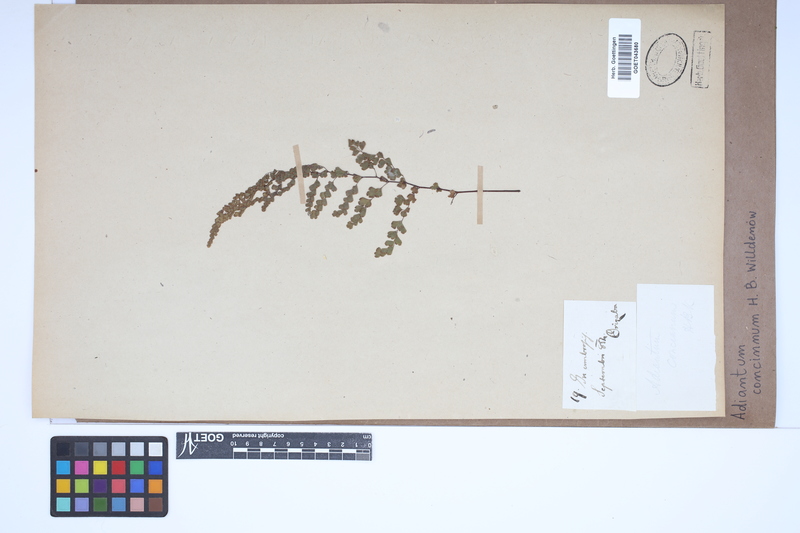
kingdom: Plantae
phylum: Tracheophyta
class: Polypodiopsida
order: Polypodiales
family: Pteridaceae
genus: Adiantum
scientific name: Adiantum concinnum
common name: Brittle maidenhair fern
